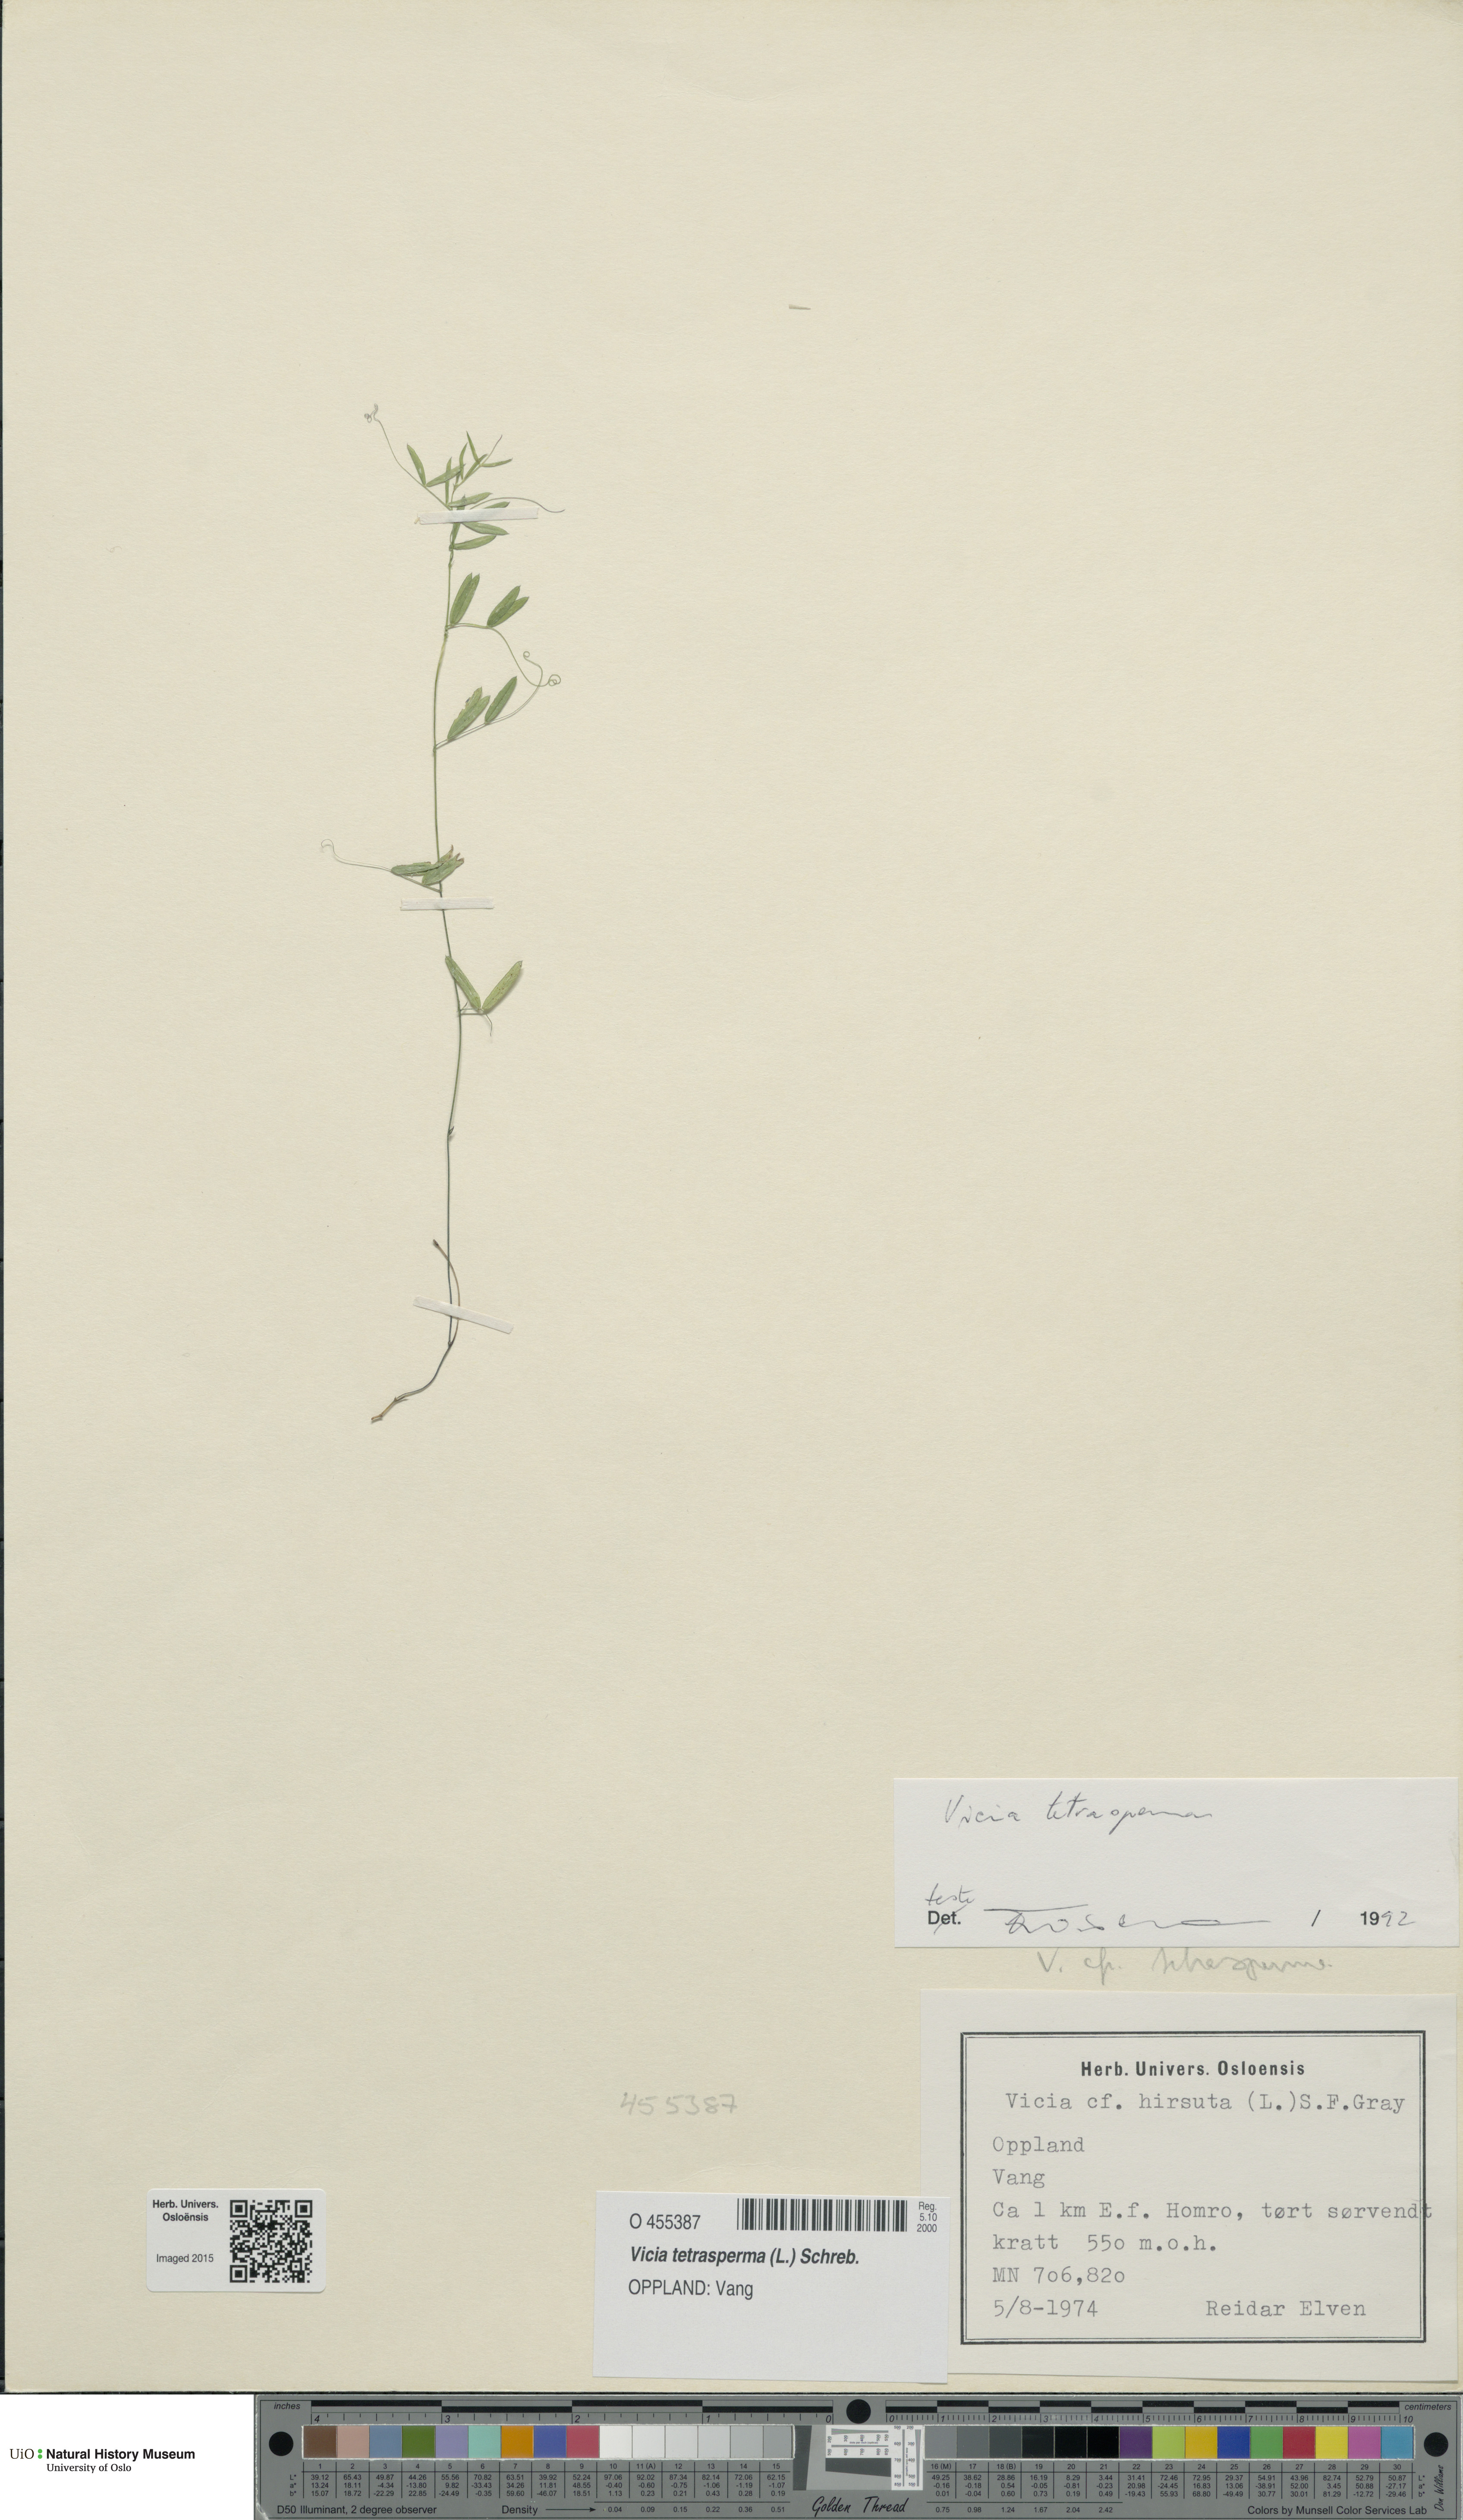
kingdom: Plantae
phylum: Tracheophyta
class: Magnoliopsida
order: Fabales
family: Fabaceae
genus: Vicia
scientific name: Vicia tetrasperma
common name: Smooth tare
